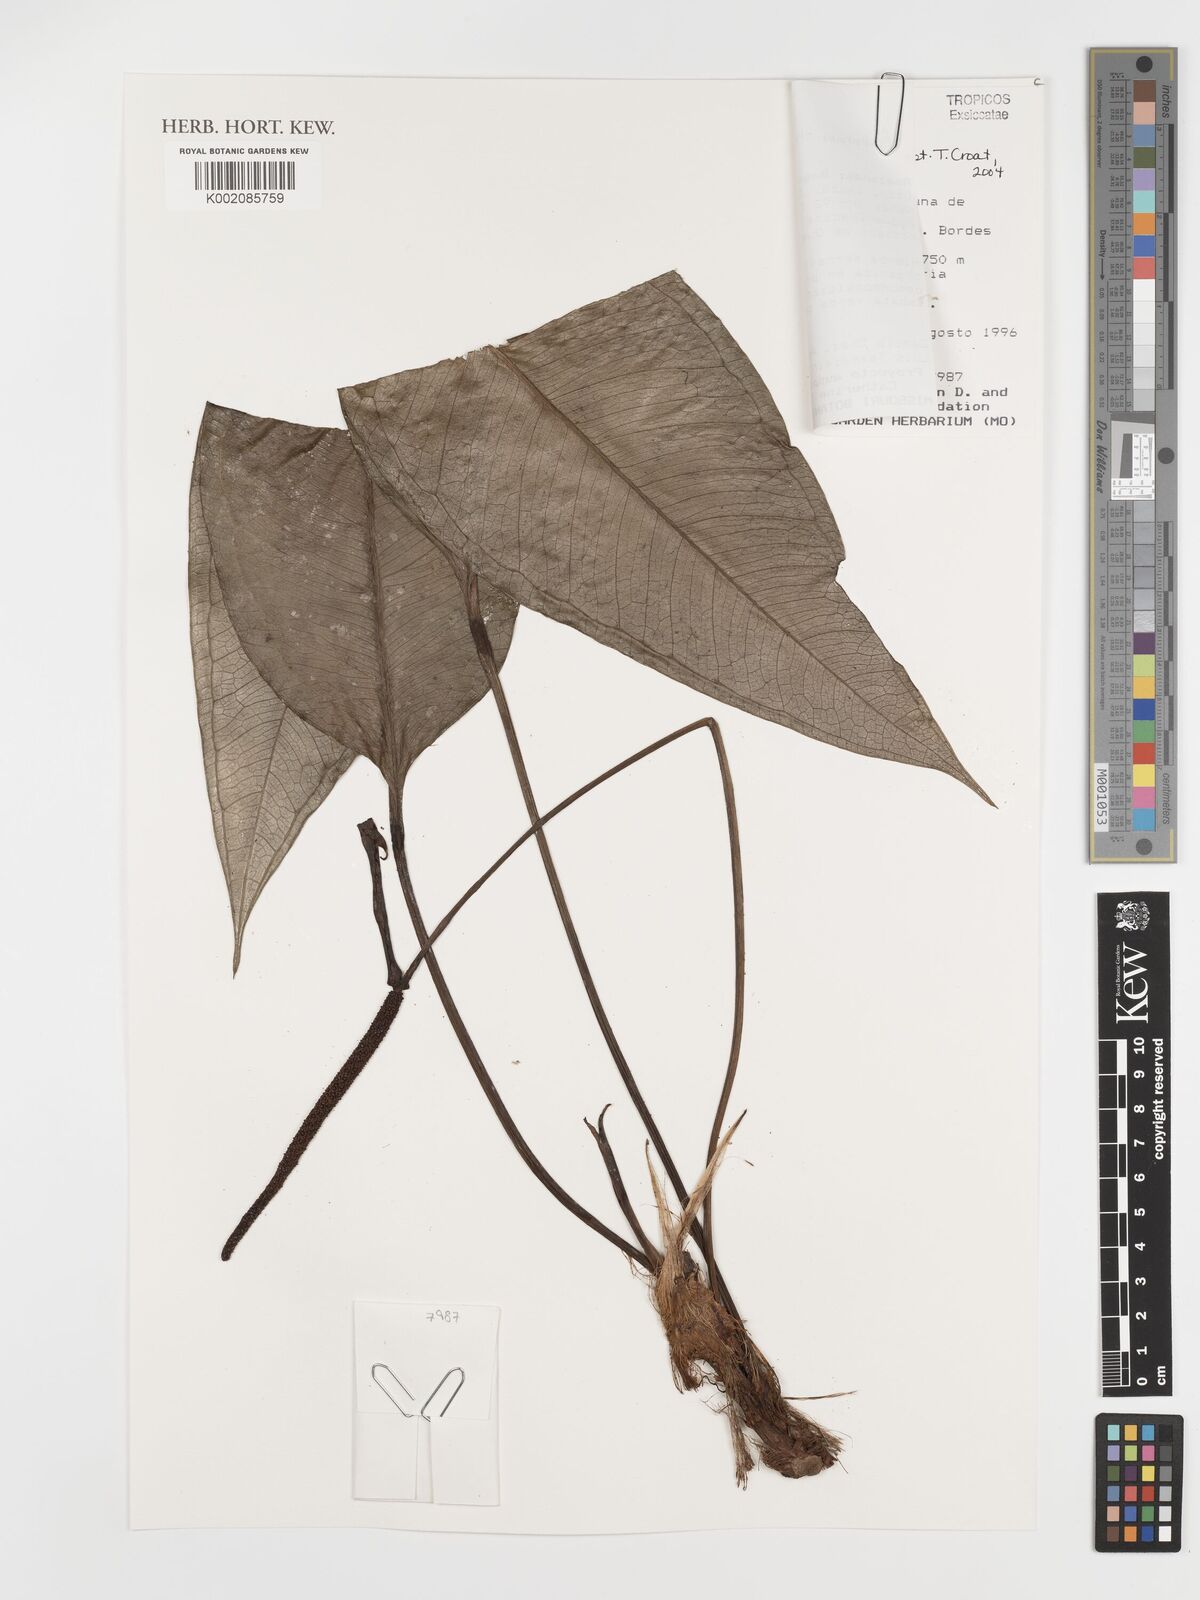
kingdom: Plantae
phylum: Tracheophyta
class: Liliopsida
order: Alismatales
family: Araceae
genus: Anthurium
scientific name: Anthurium chinimense
